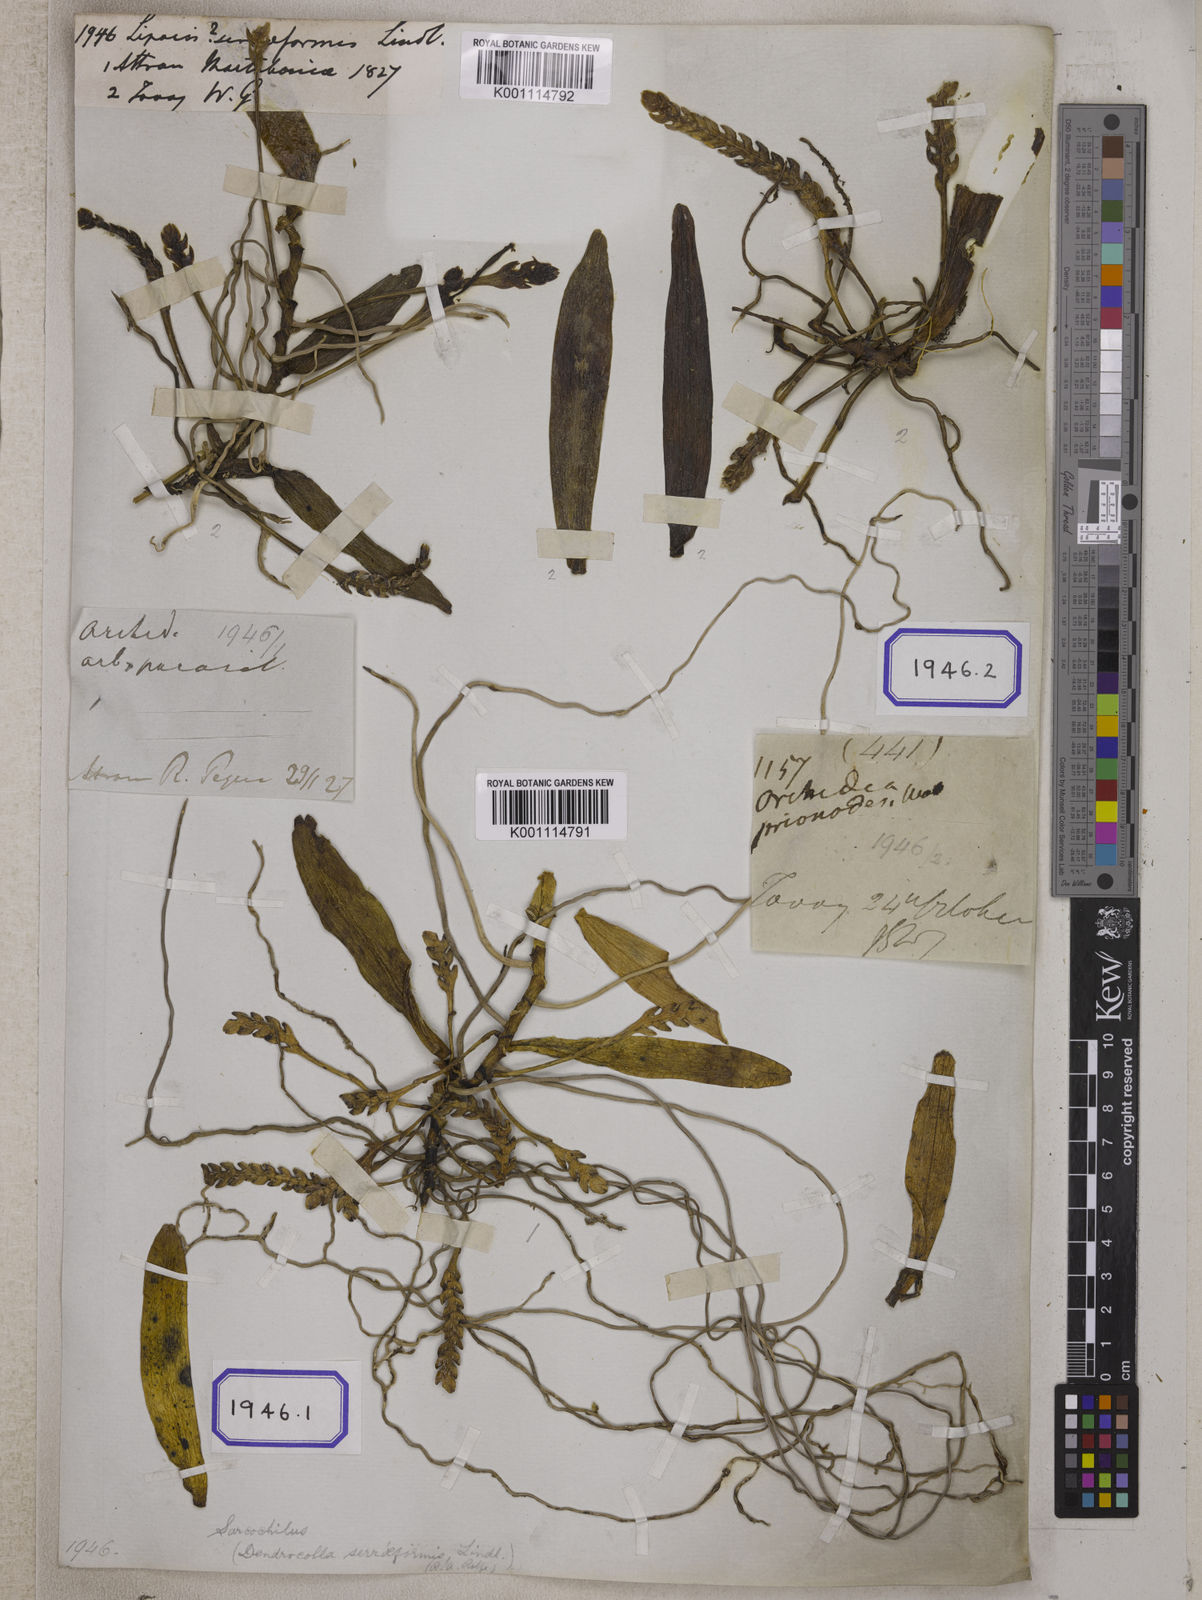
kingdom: Plantae
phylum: Tracheophyta
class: Liliopsida
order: Asparagales
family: Orchidaceae
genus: Thrixspermum
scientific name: Thrixspermum complanatum
